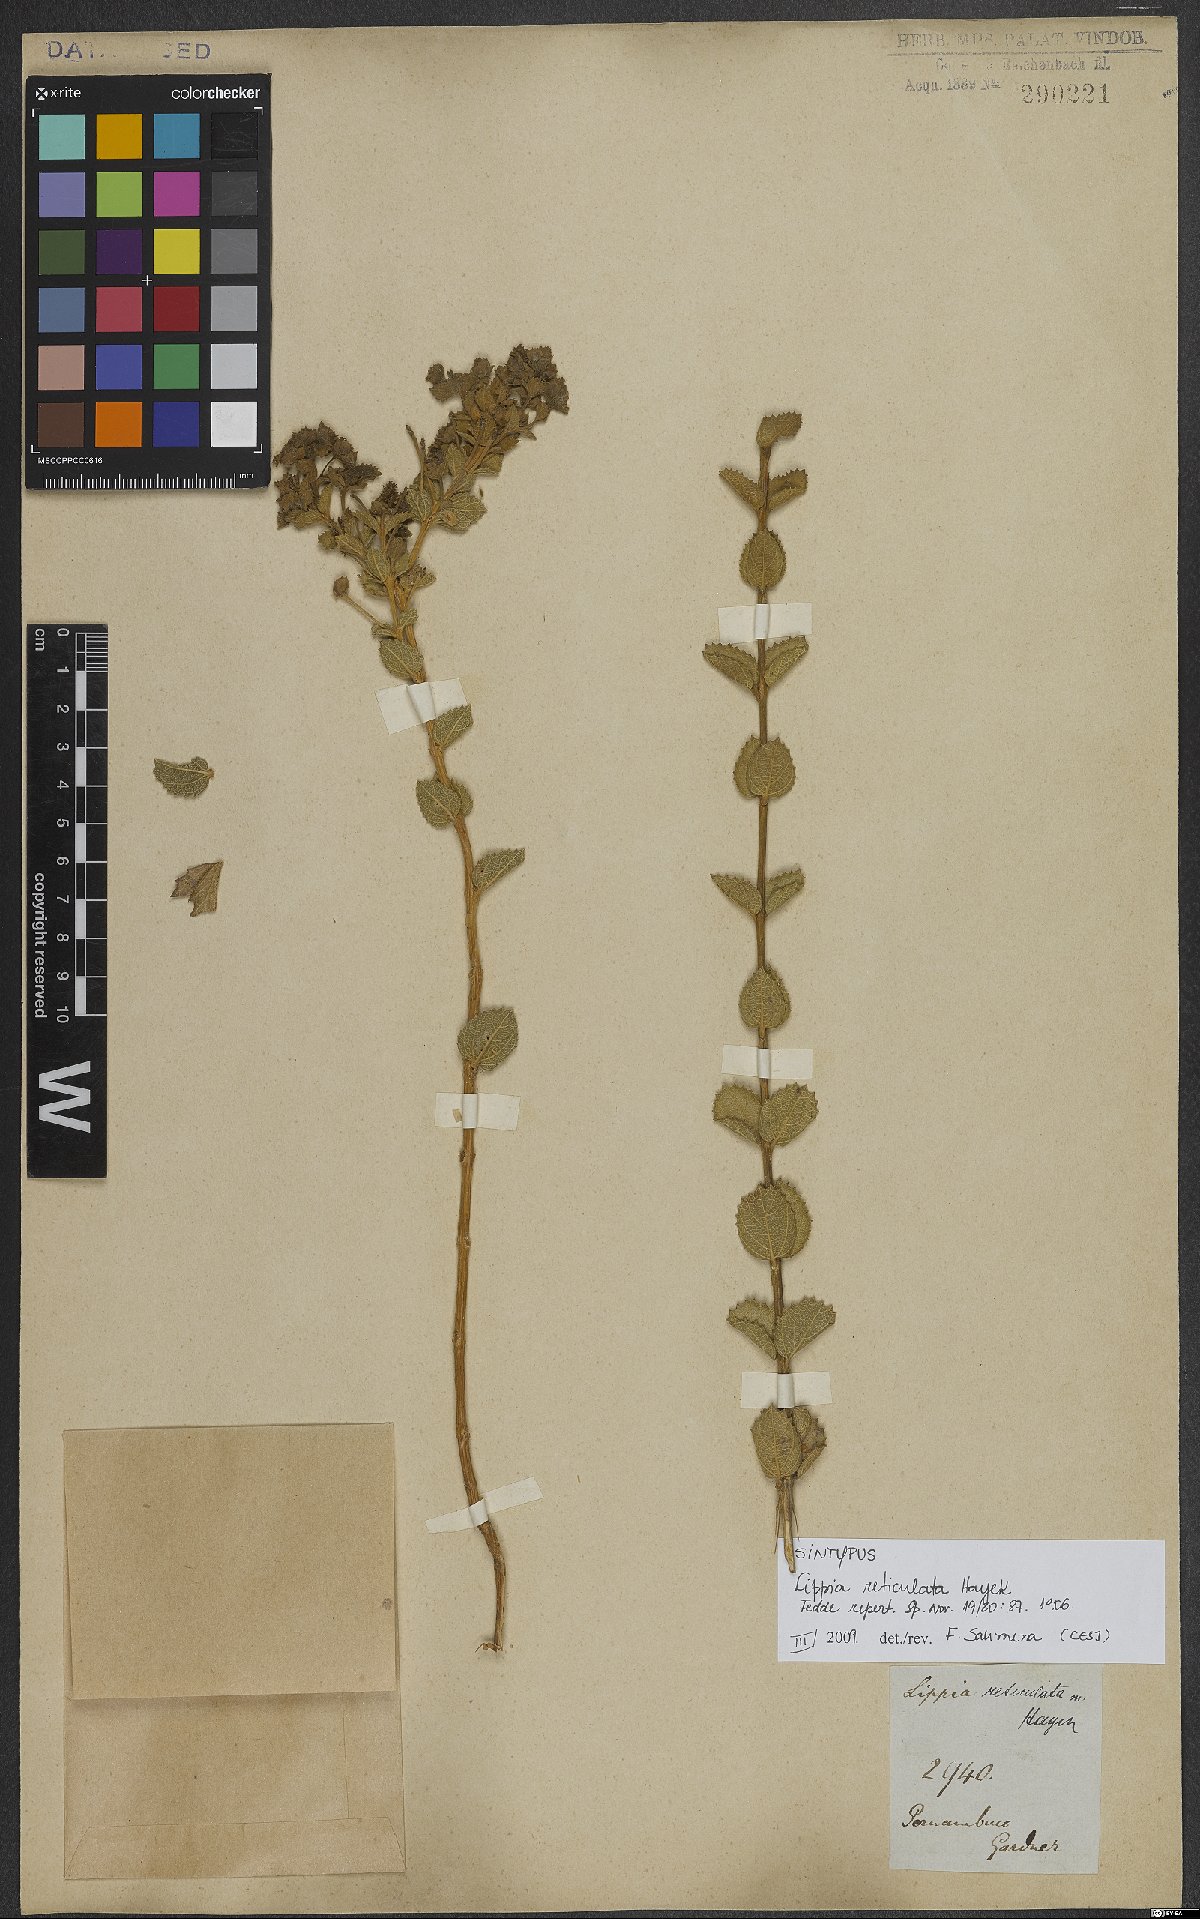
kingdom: Plantae
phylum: Tracheophyta
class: Magnoliopsida
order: Lamiales
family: Verbenaceae
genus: Lippia
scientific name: Lippia acutidens
